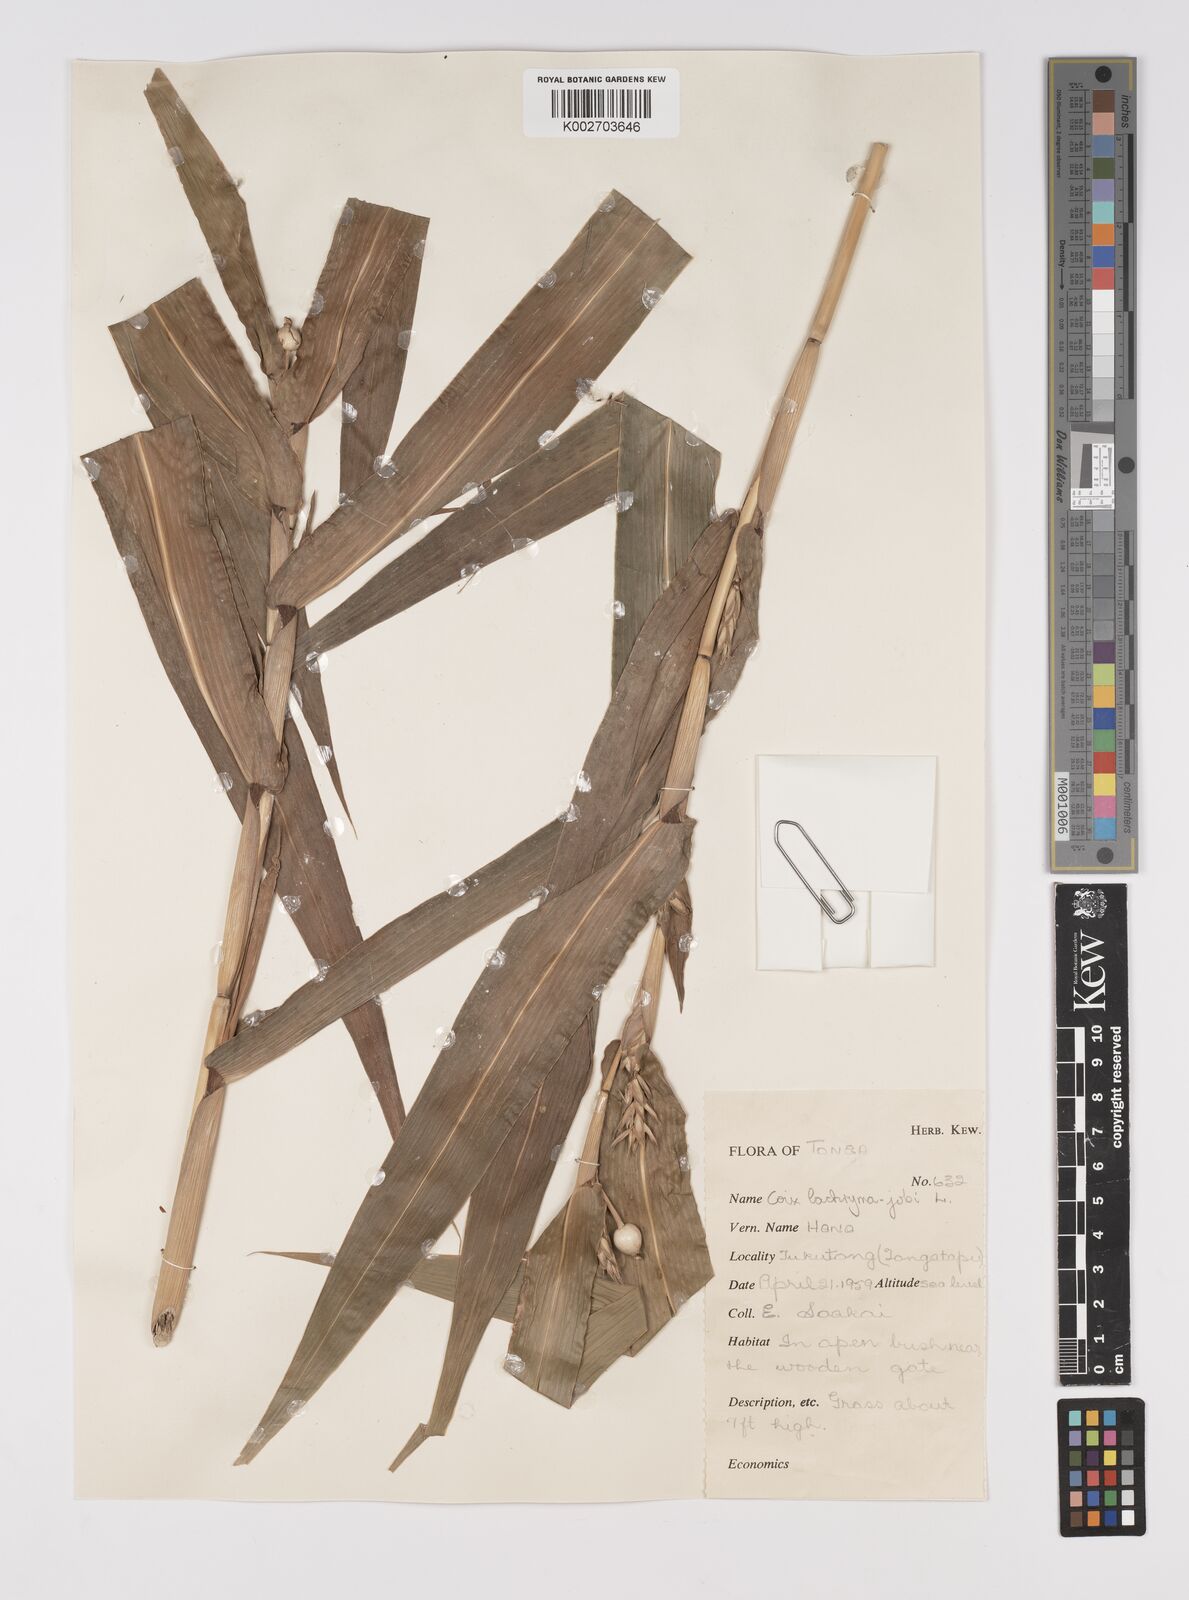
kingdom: Plantae
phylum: Tracheophyta
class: Liliopsida
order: Poales
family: Poaceae
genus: Coix
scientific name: Coix lacryma-jobi
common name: Job's tears
